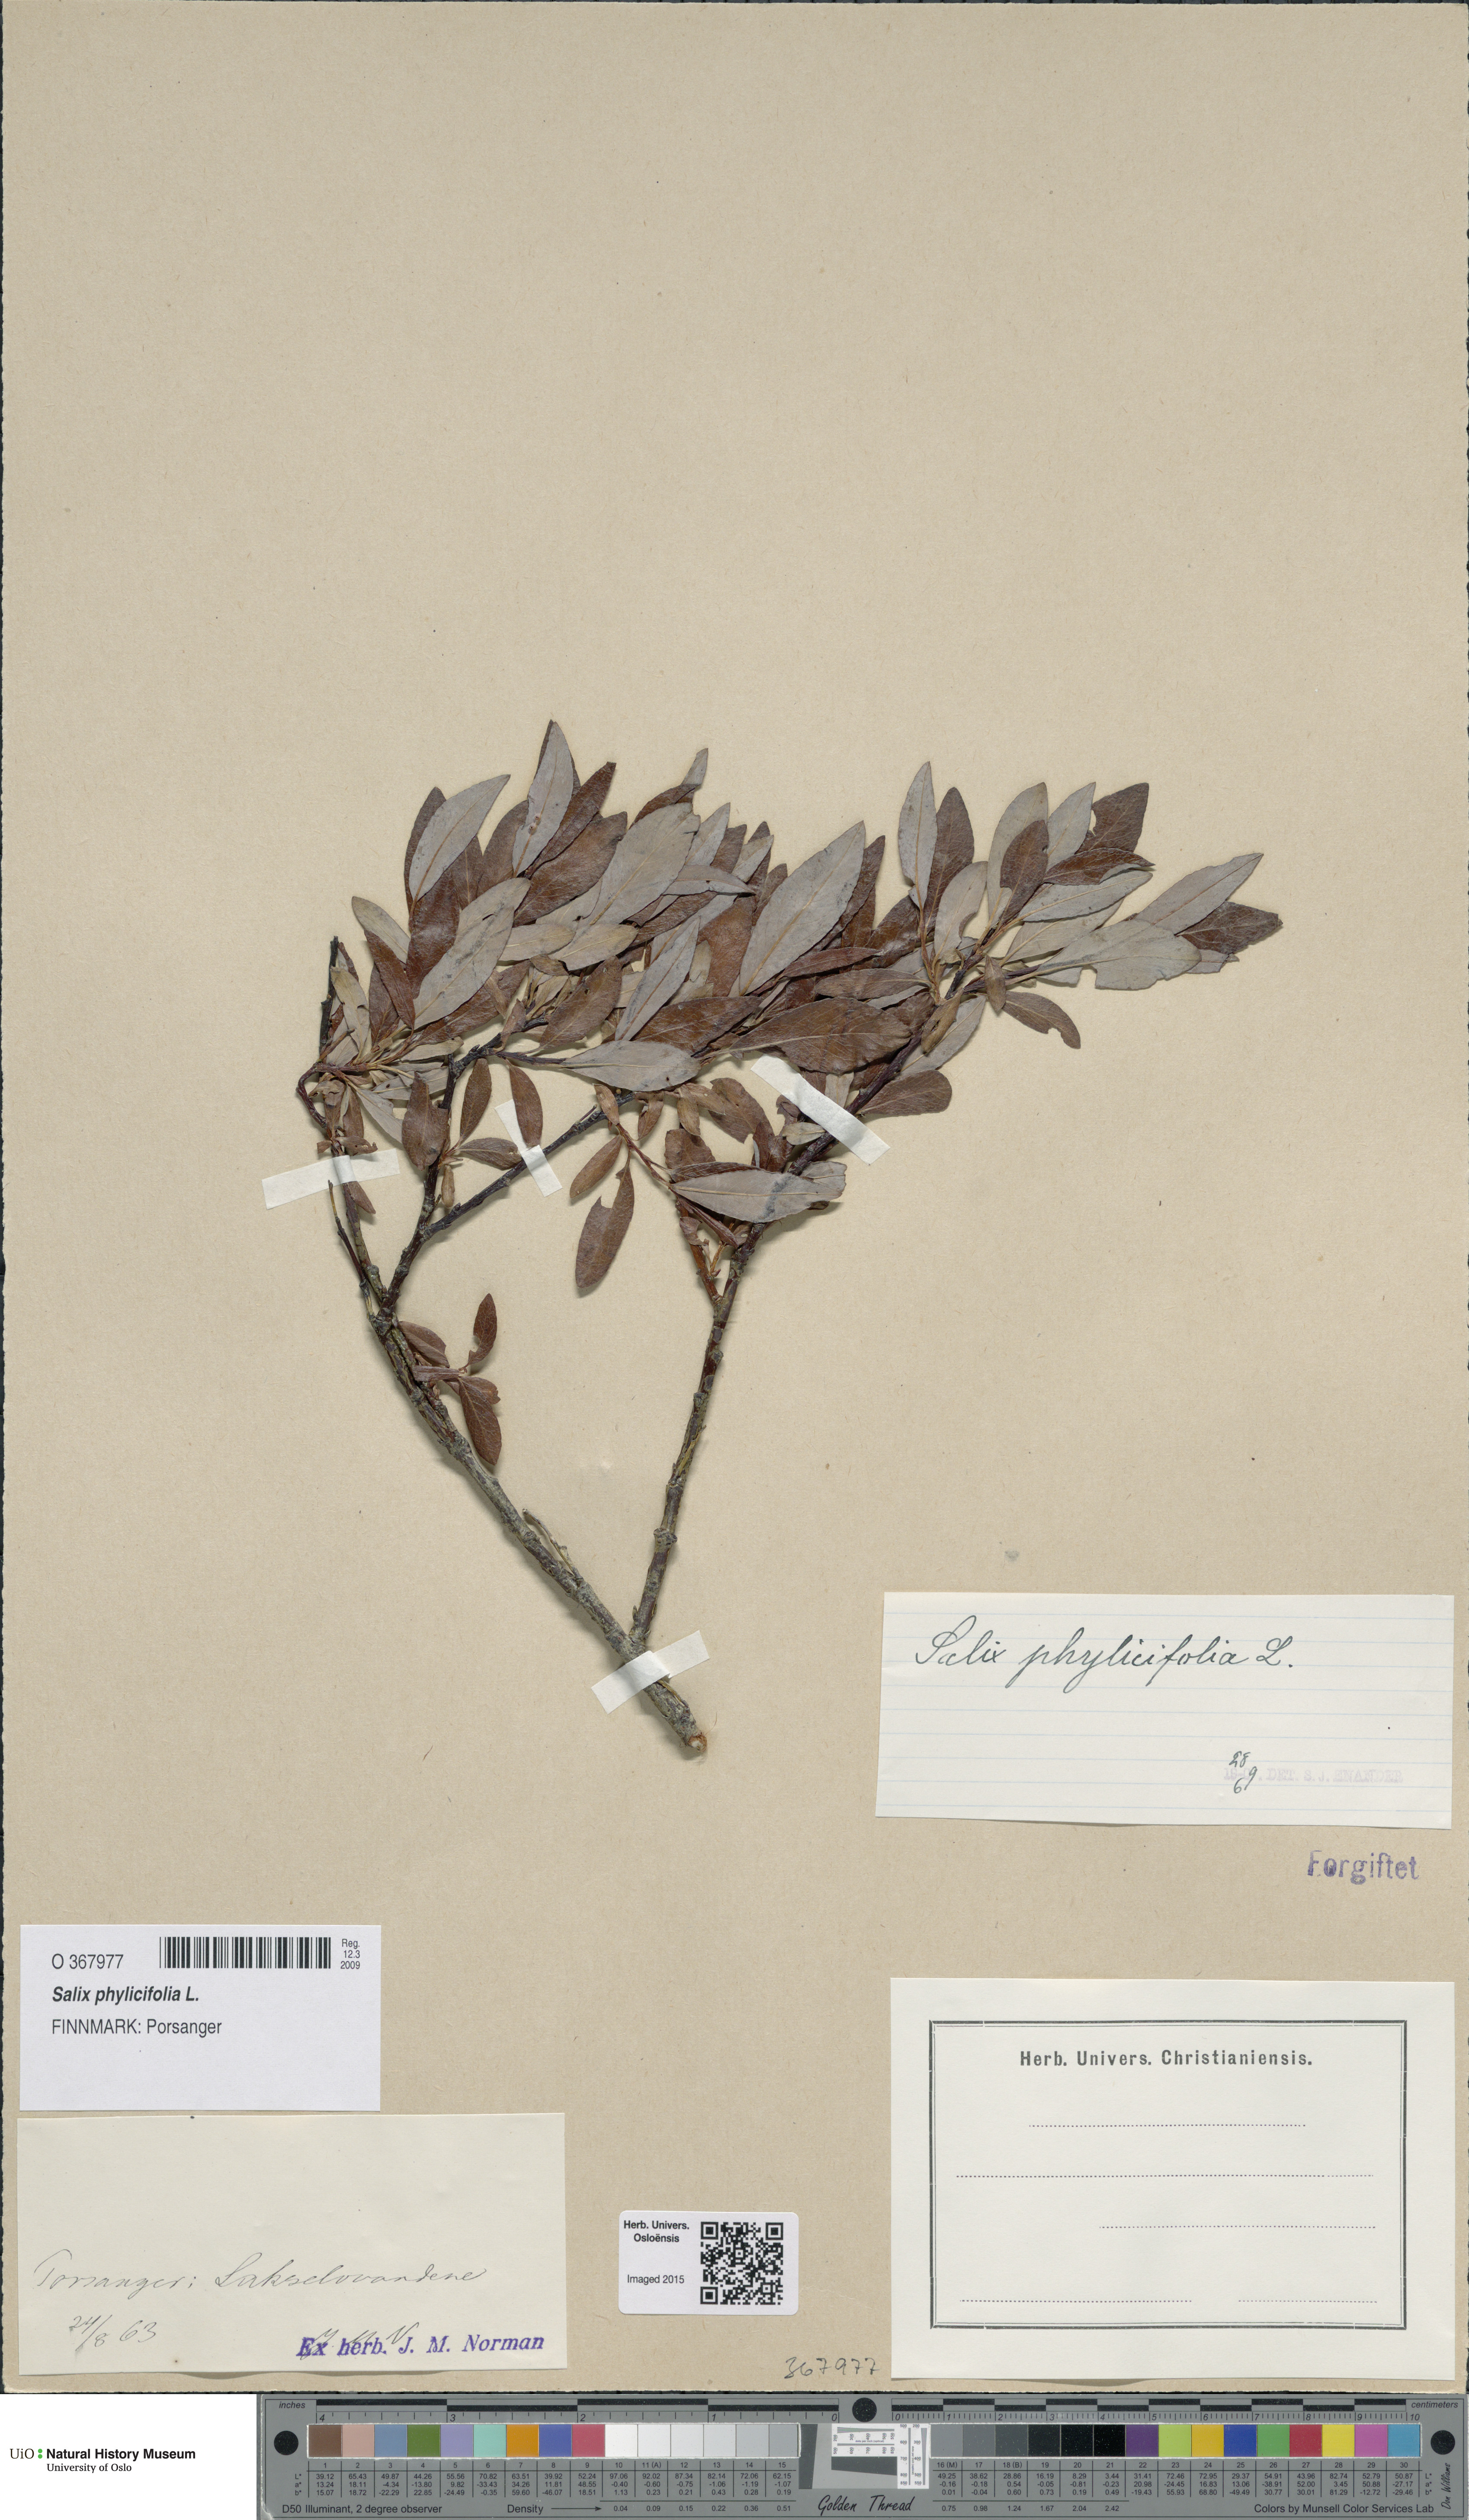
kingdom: Plantae
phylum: Tracheophyta
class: Magnoliopsida
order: Malpighiales
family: Salicaceae
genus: Salix
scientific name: Salix phylicifolia
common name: Tea-leaved willow
